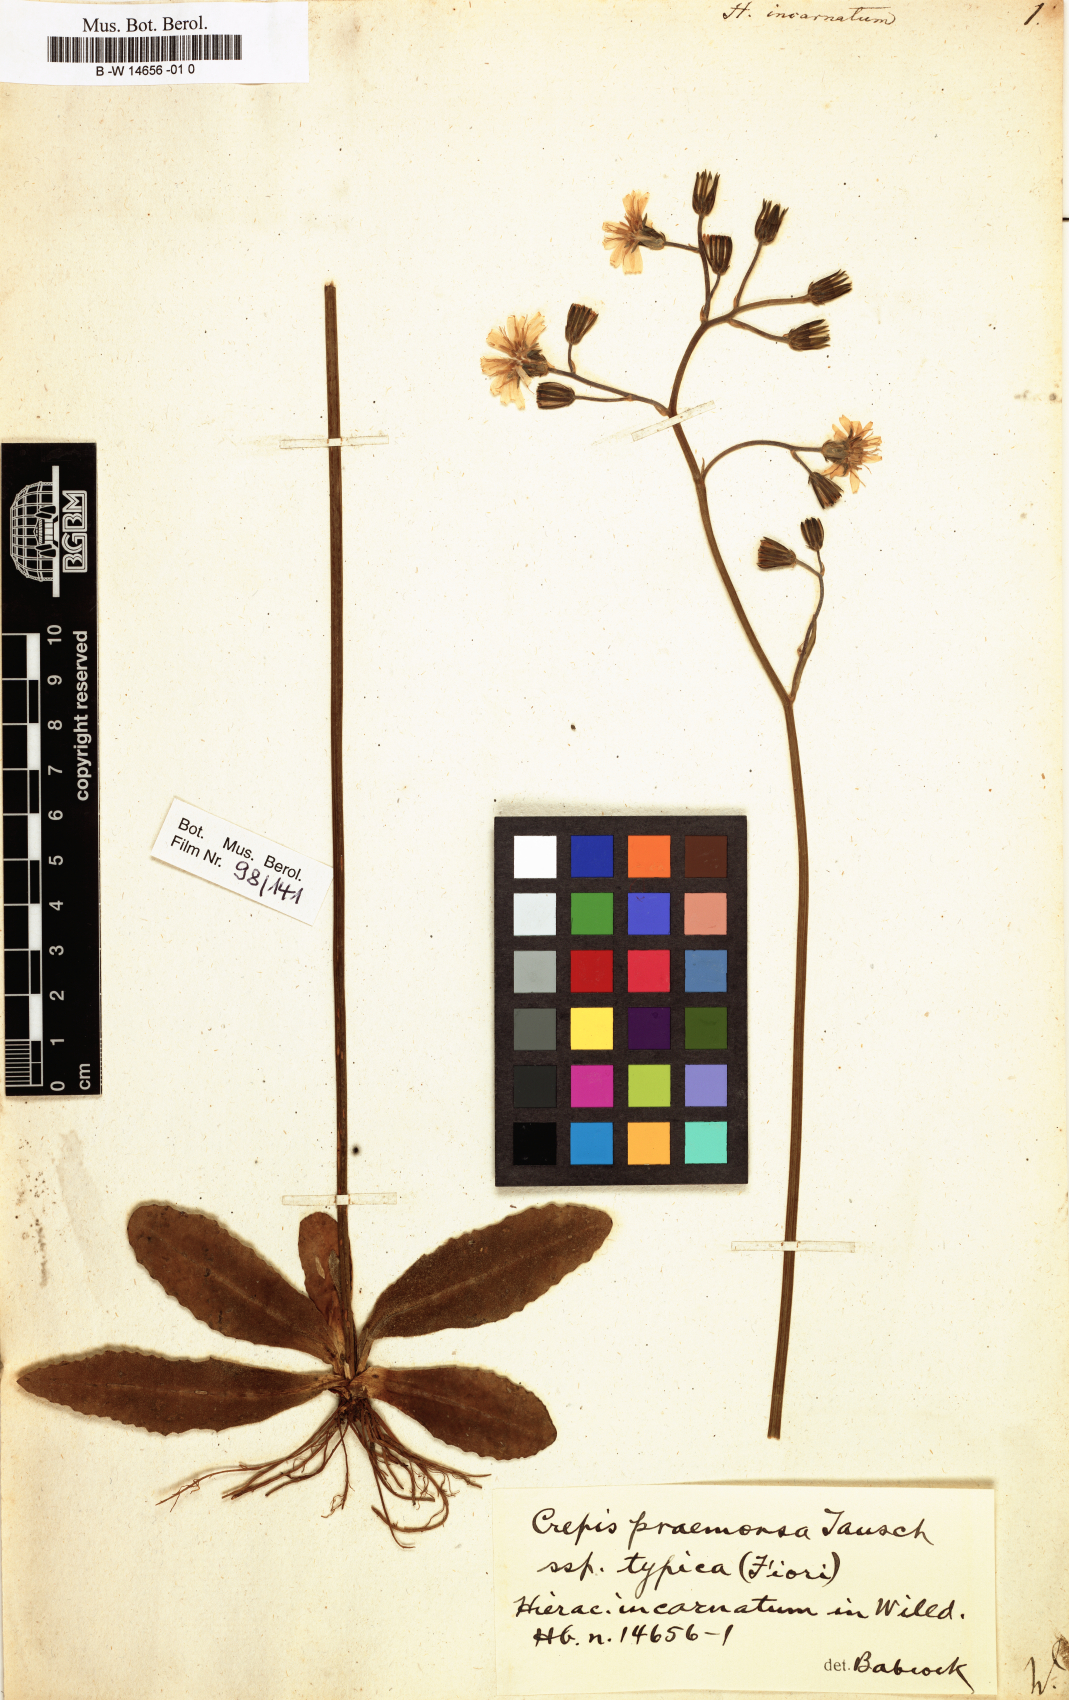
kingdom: Plantae
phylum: Tracheophyta
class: Magnoliopsida
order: Asterales
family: Asteraceae
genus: Hieracium
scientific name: Hieracium
